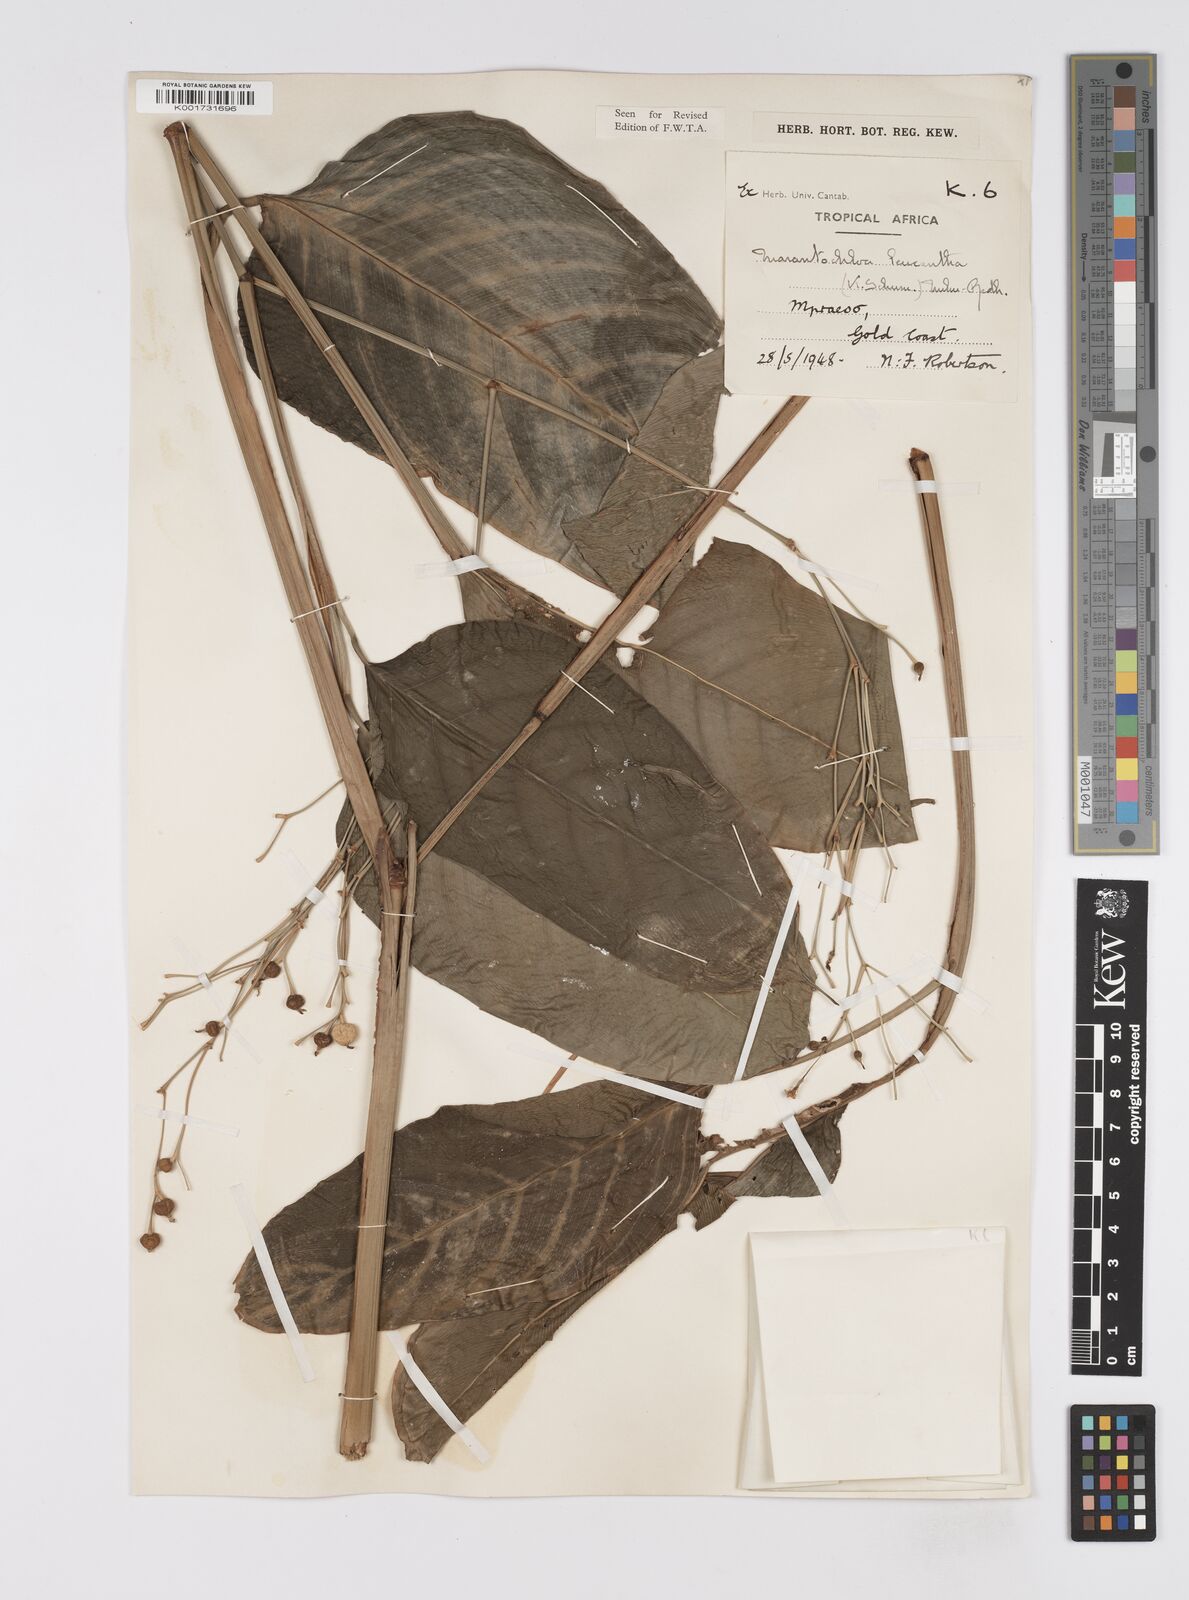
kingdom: Plantae
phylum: Tracheophyta
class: Liliopsida
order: Zingiberales
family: Marantaceae
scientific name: Marantaceae
